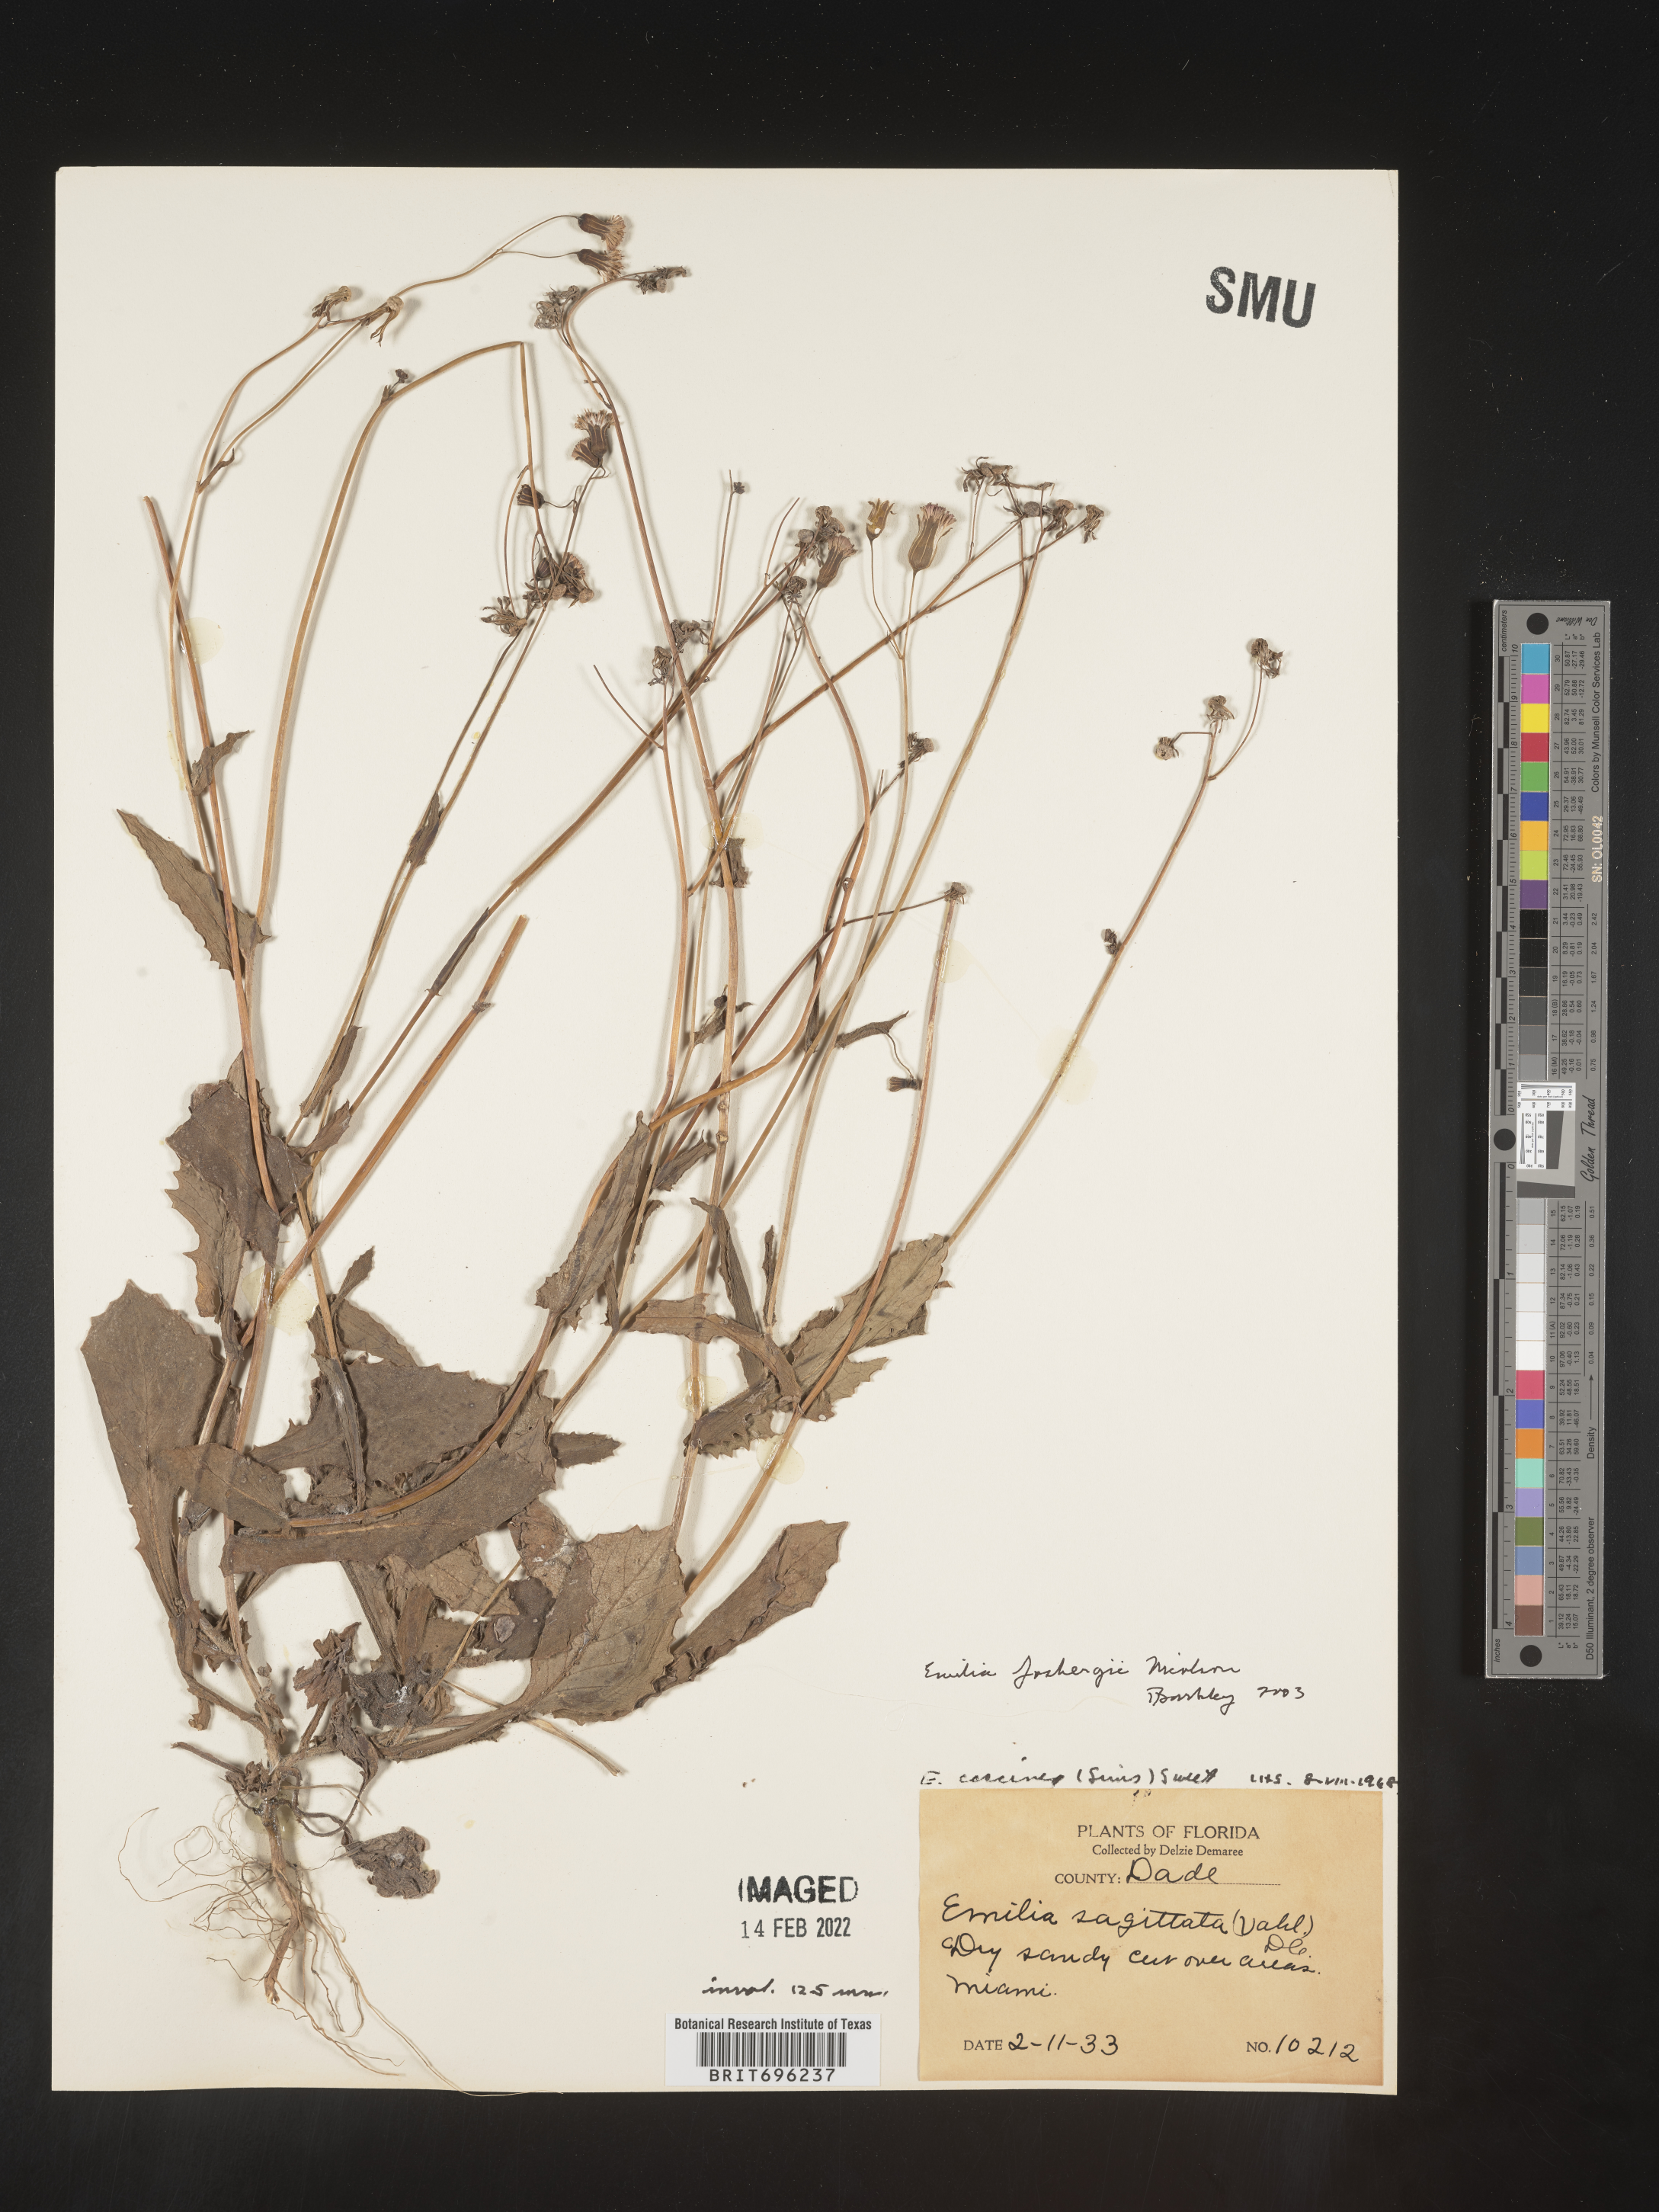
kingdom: Plantae
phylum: Tracheophyta
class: Magnoliopsida
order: Asterales
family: Asteraceae
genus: Emilia
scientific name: Emilia fosbergii
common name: Florida tasselflower
